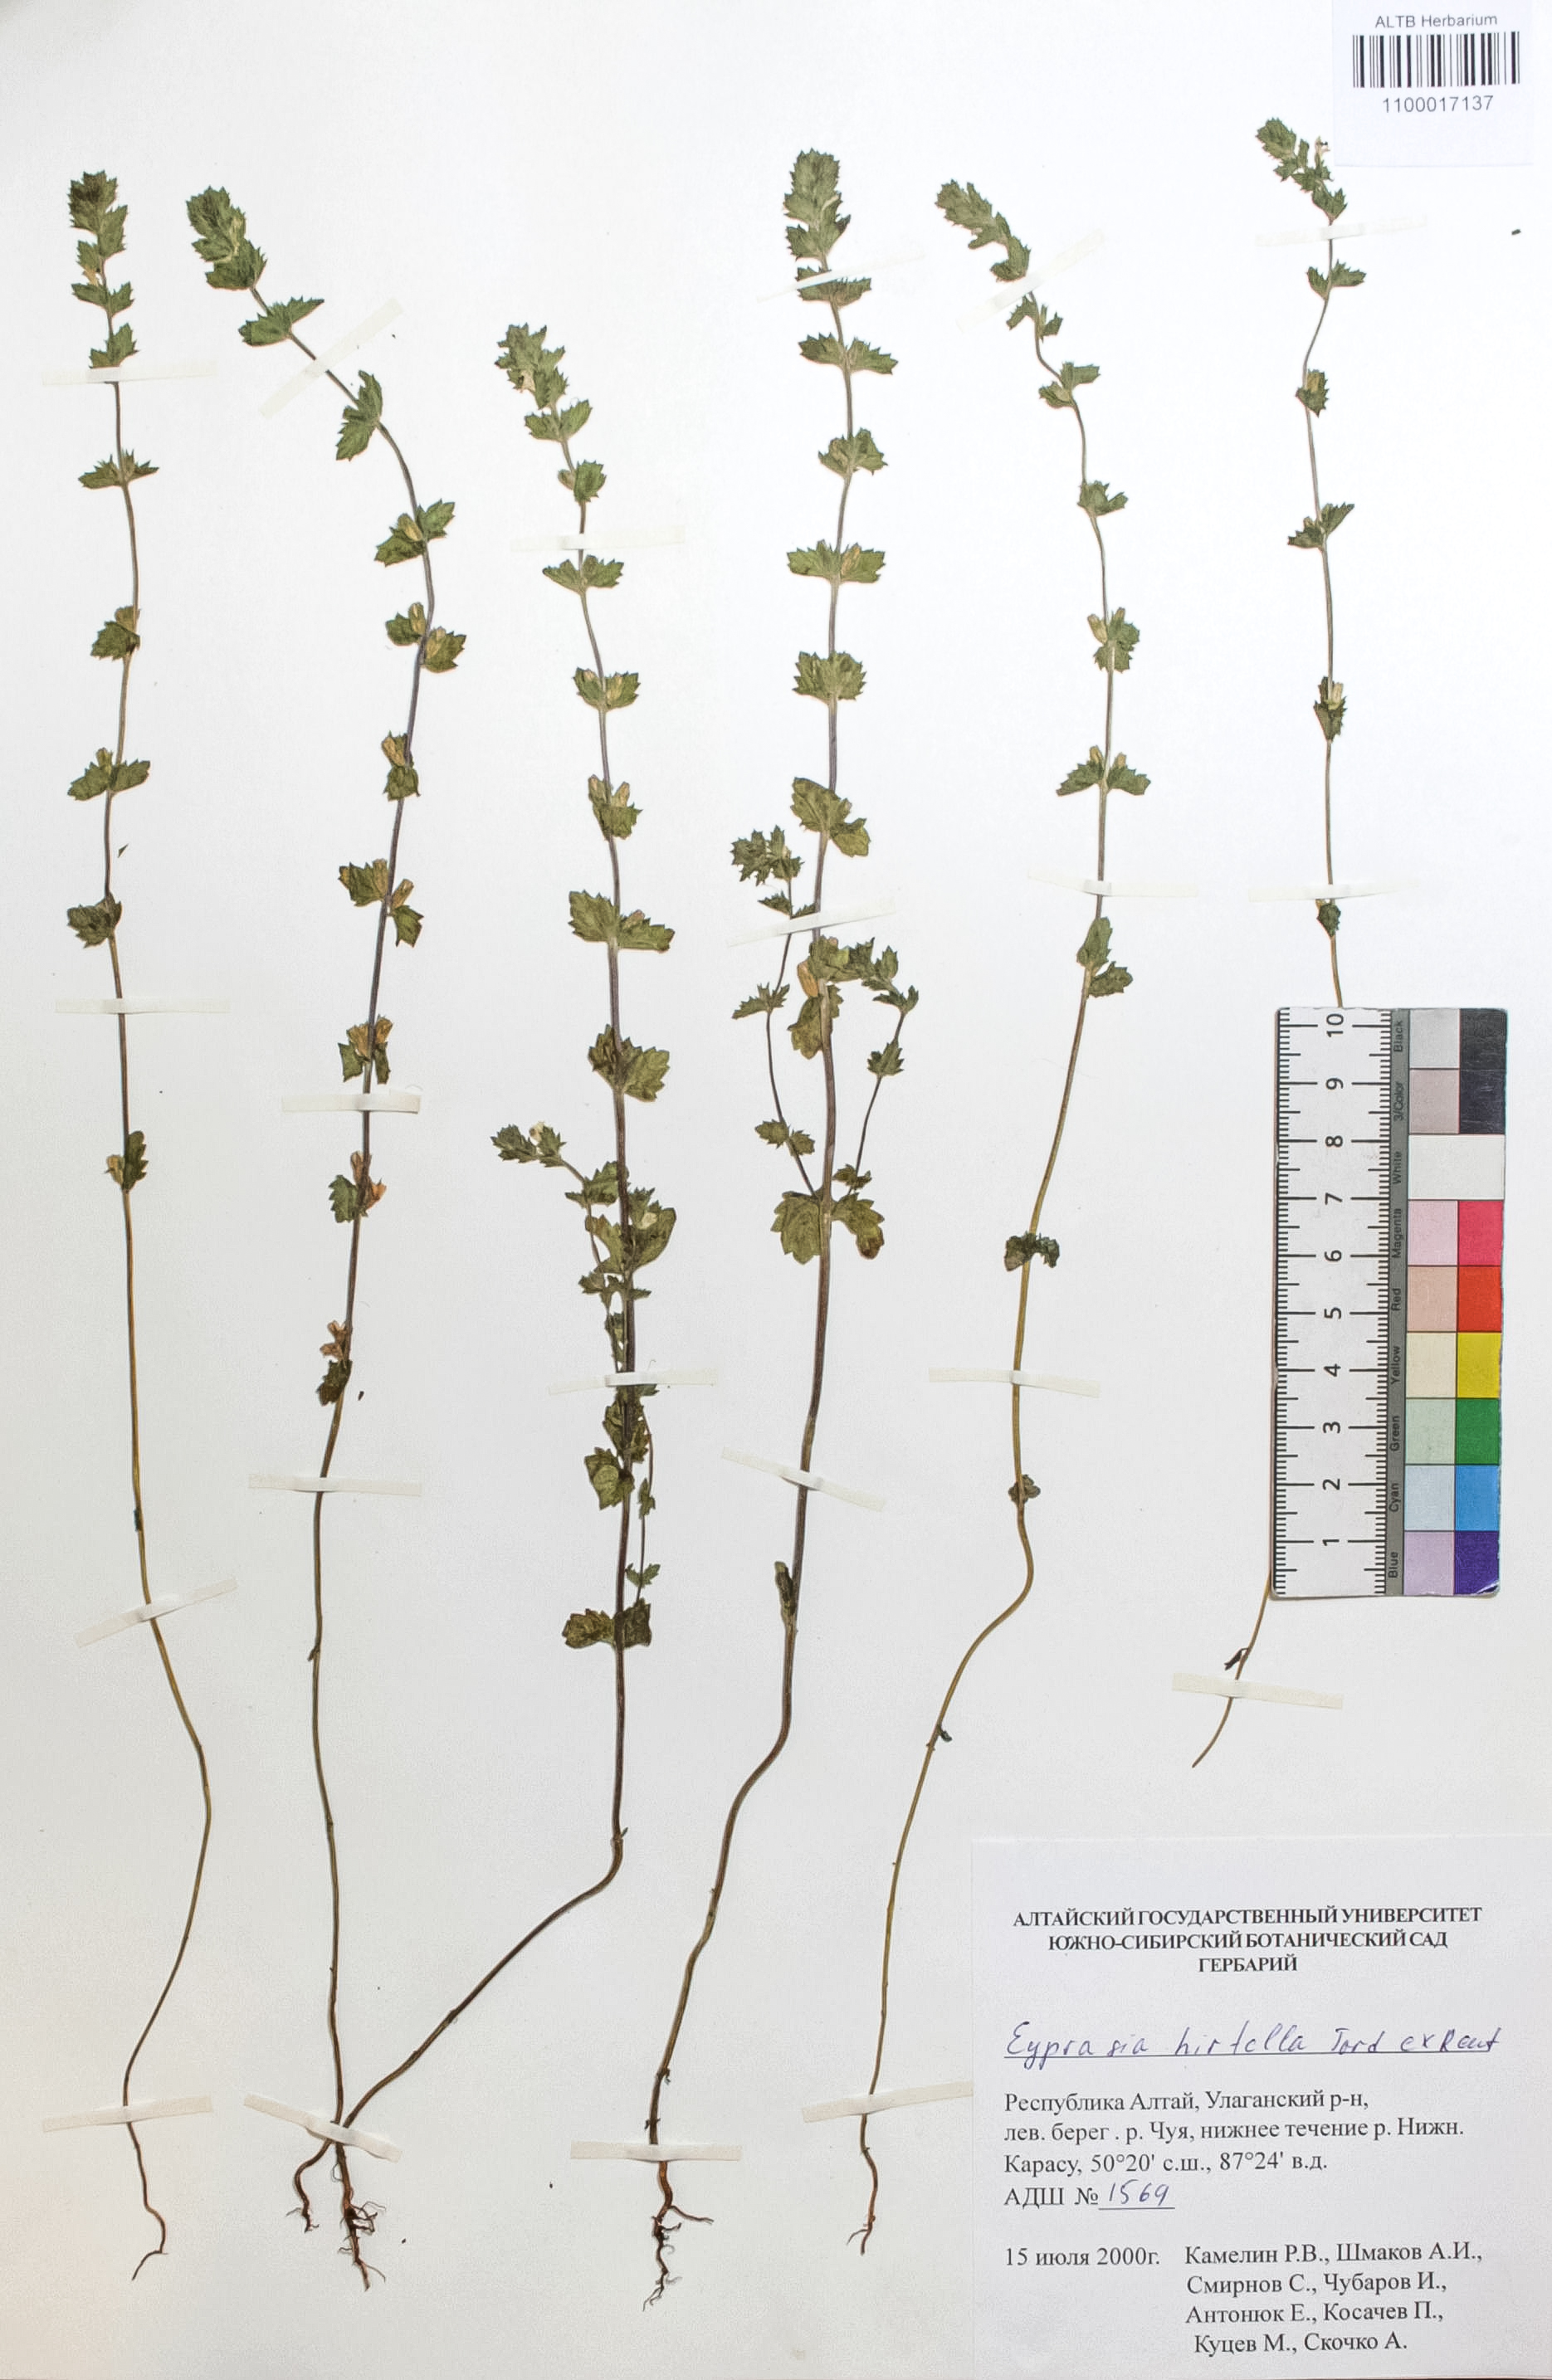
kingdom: Plantae
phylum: Tracheophyta
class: Magnoliopsida
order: Lamiales
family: Orobanchaceae
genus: Euphrasia
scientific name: Euphrasia hirtella
